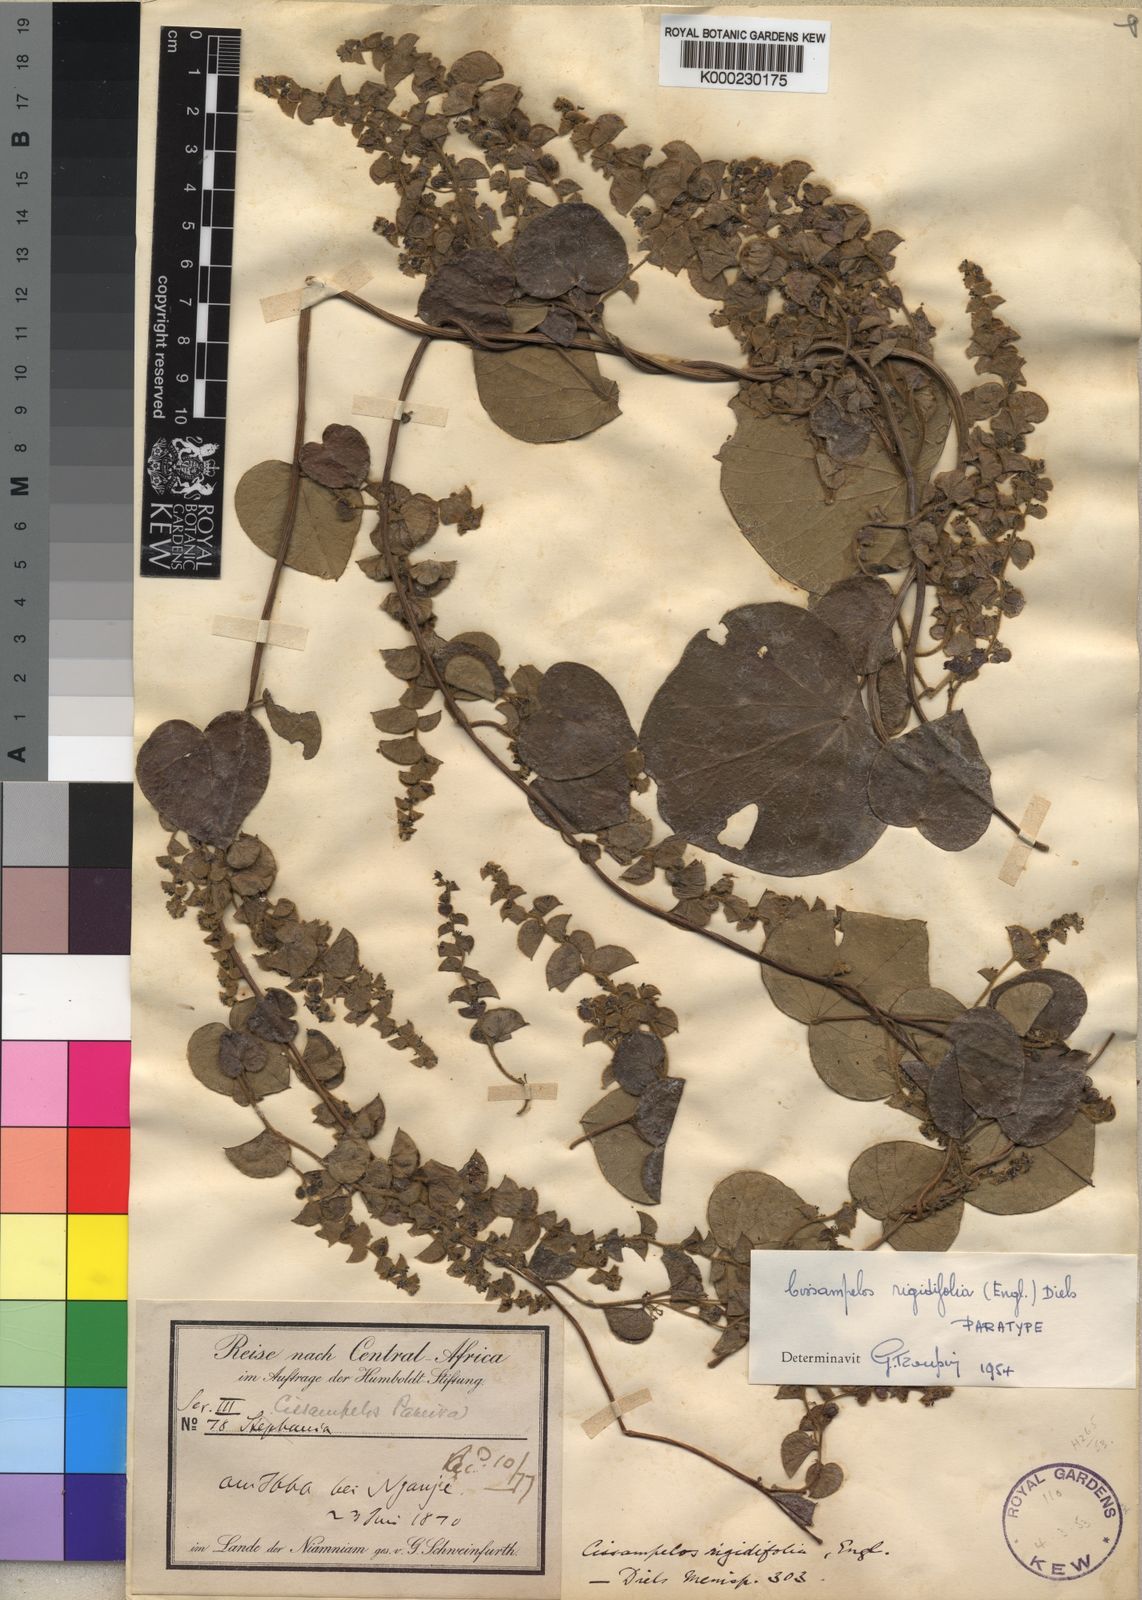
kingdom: Plantae
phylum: Tracheophyta
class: Magnoliopsida
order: Ranunculales
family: Menispermaceae
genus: Cissampelos
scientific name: Cissampelos rigidifolia
